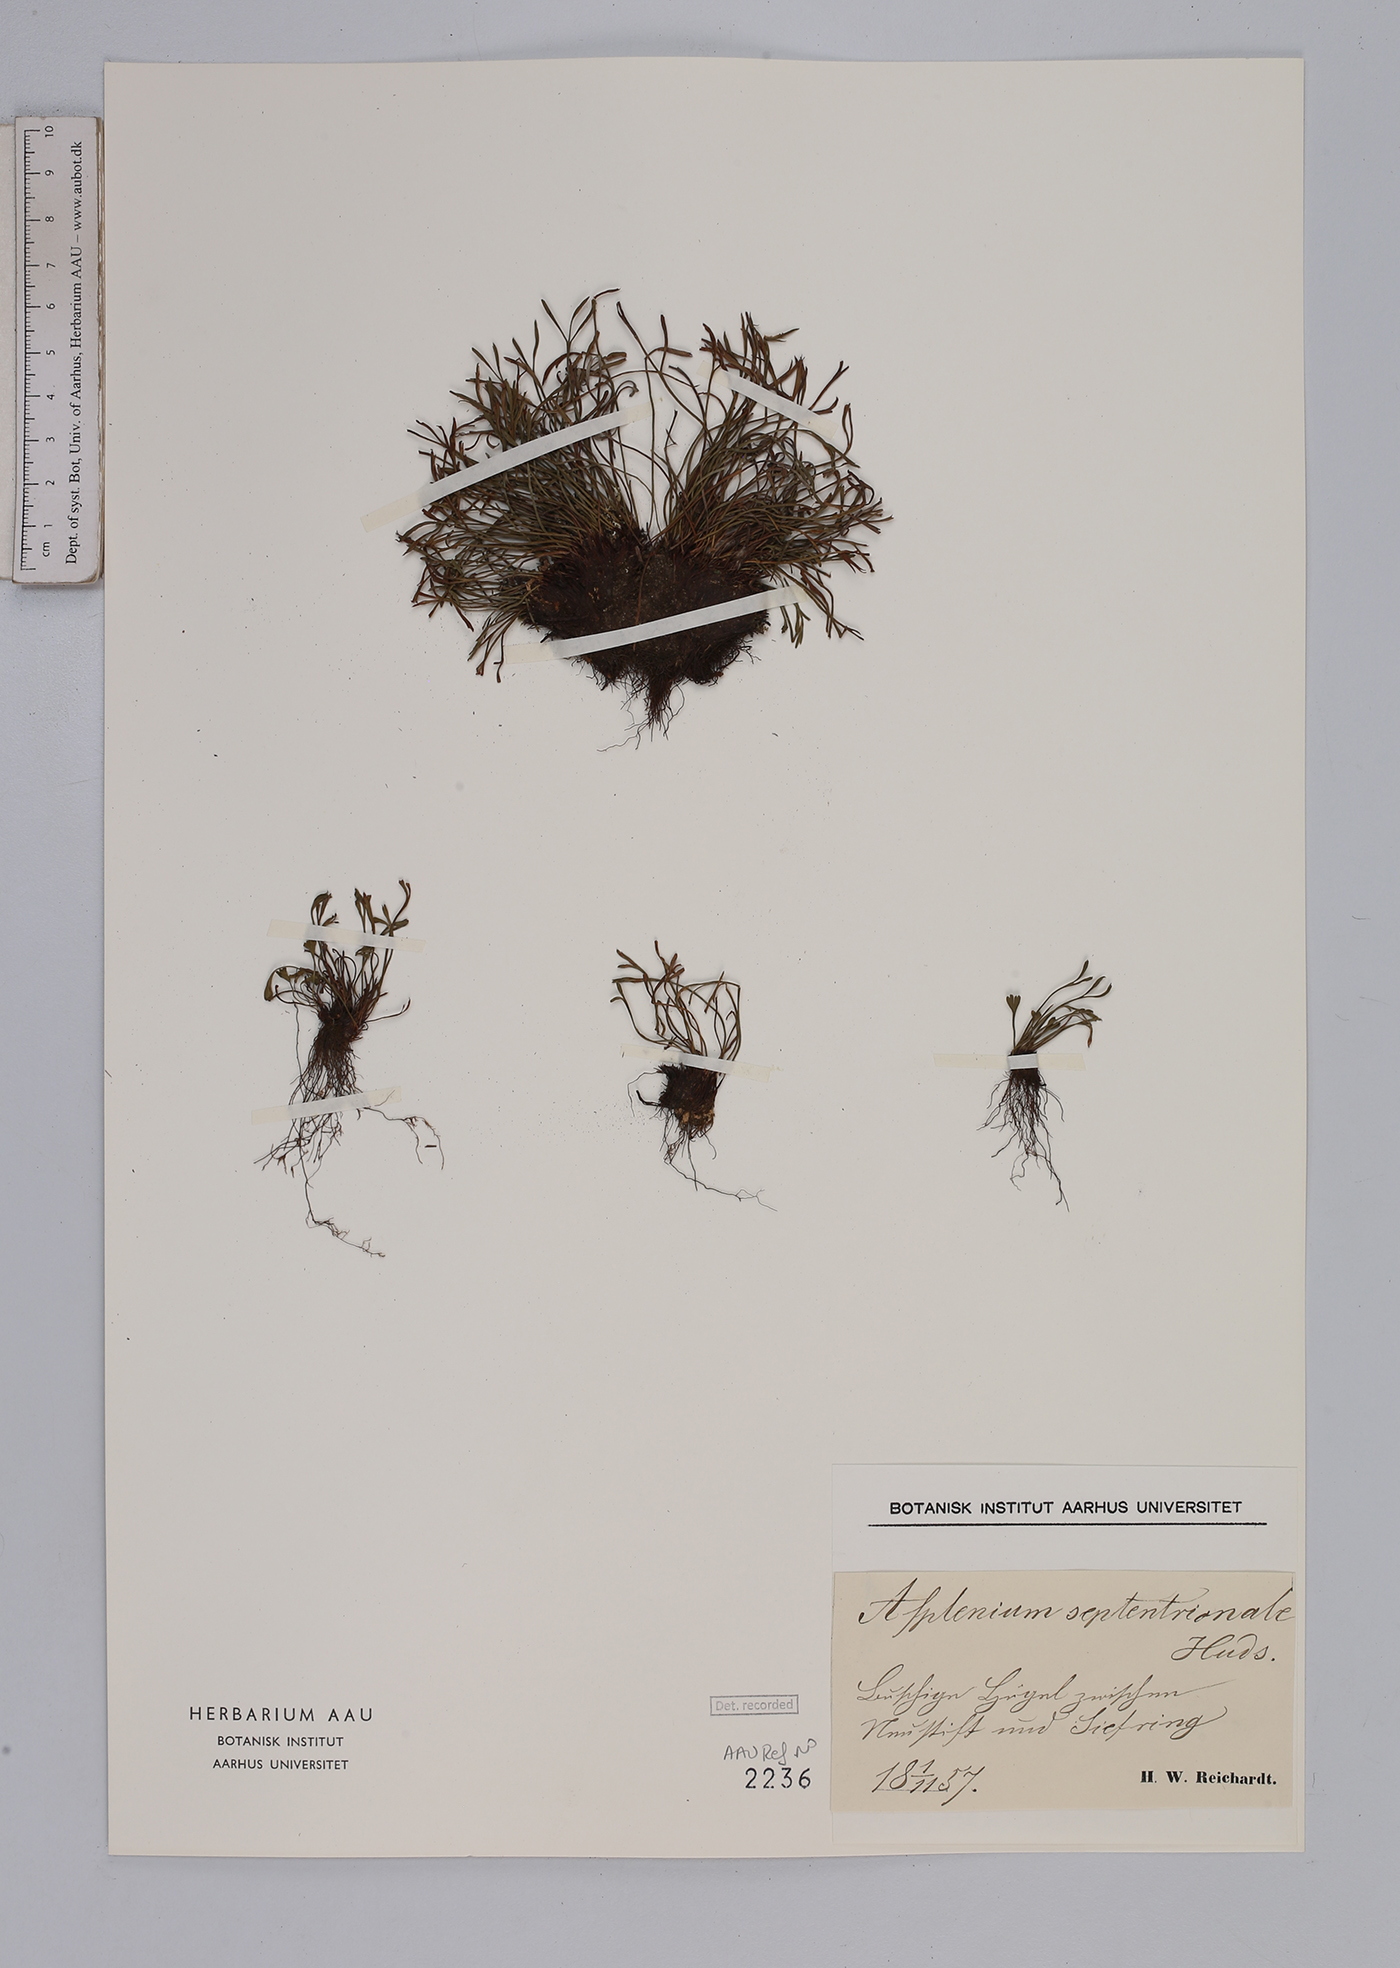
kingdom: Plantae
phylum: Tracheophyta
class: Polypodiopsida
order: Polypodiales
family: Aspleniaceae
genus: Asplenium
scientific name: Asplenium septentrionale
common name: Forked spleenwort
